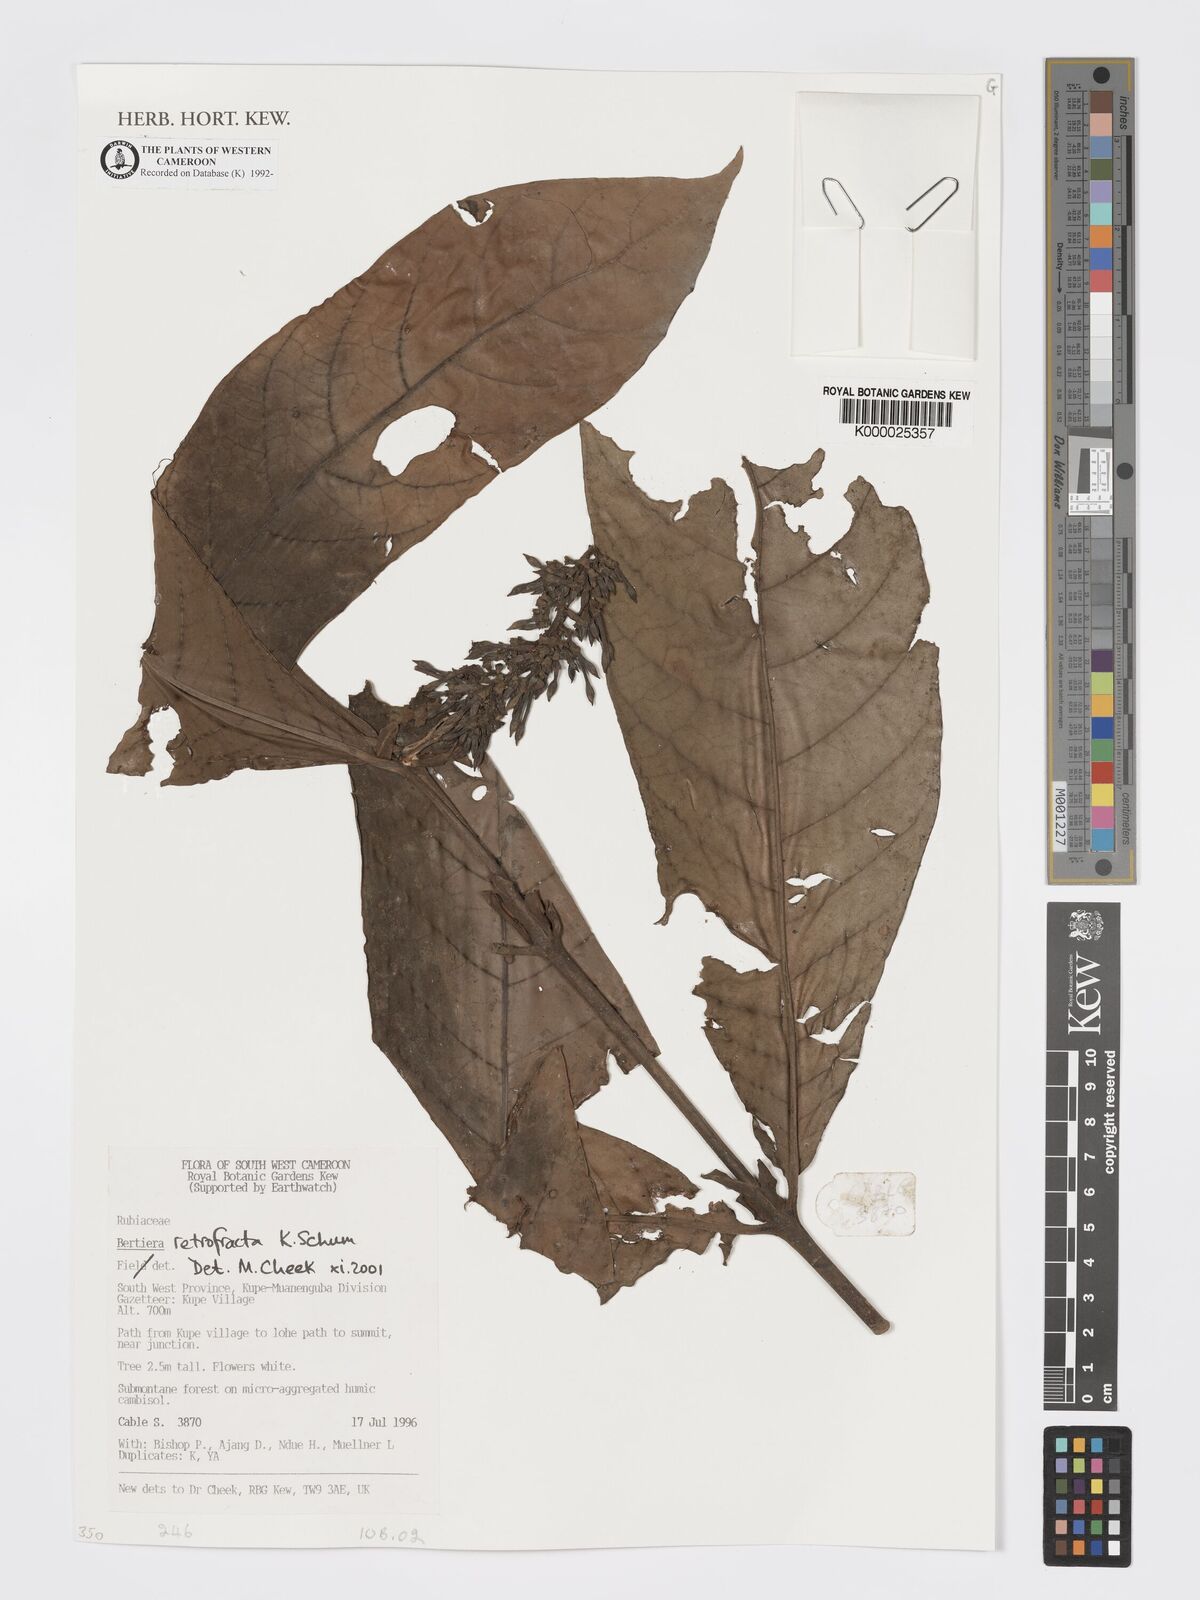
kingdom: Plantae
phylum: Tracheophyta
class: Magnoliopsida
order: Gentianales
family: Rubiaceae
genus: Bertiera
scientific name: Bertiera retrofracta
